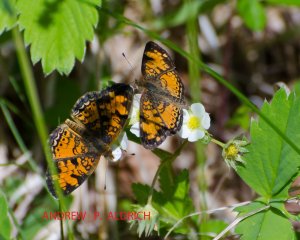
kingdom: Animalia
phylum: Arthropoda
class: Insecta
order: Lepidoptera
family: Nymphalidae
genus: Phyciodes
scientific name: Phyciodes tharos
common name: Pearl Crescent
